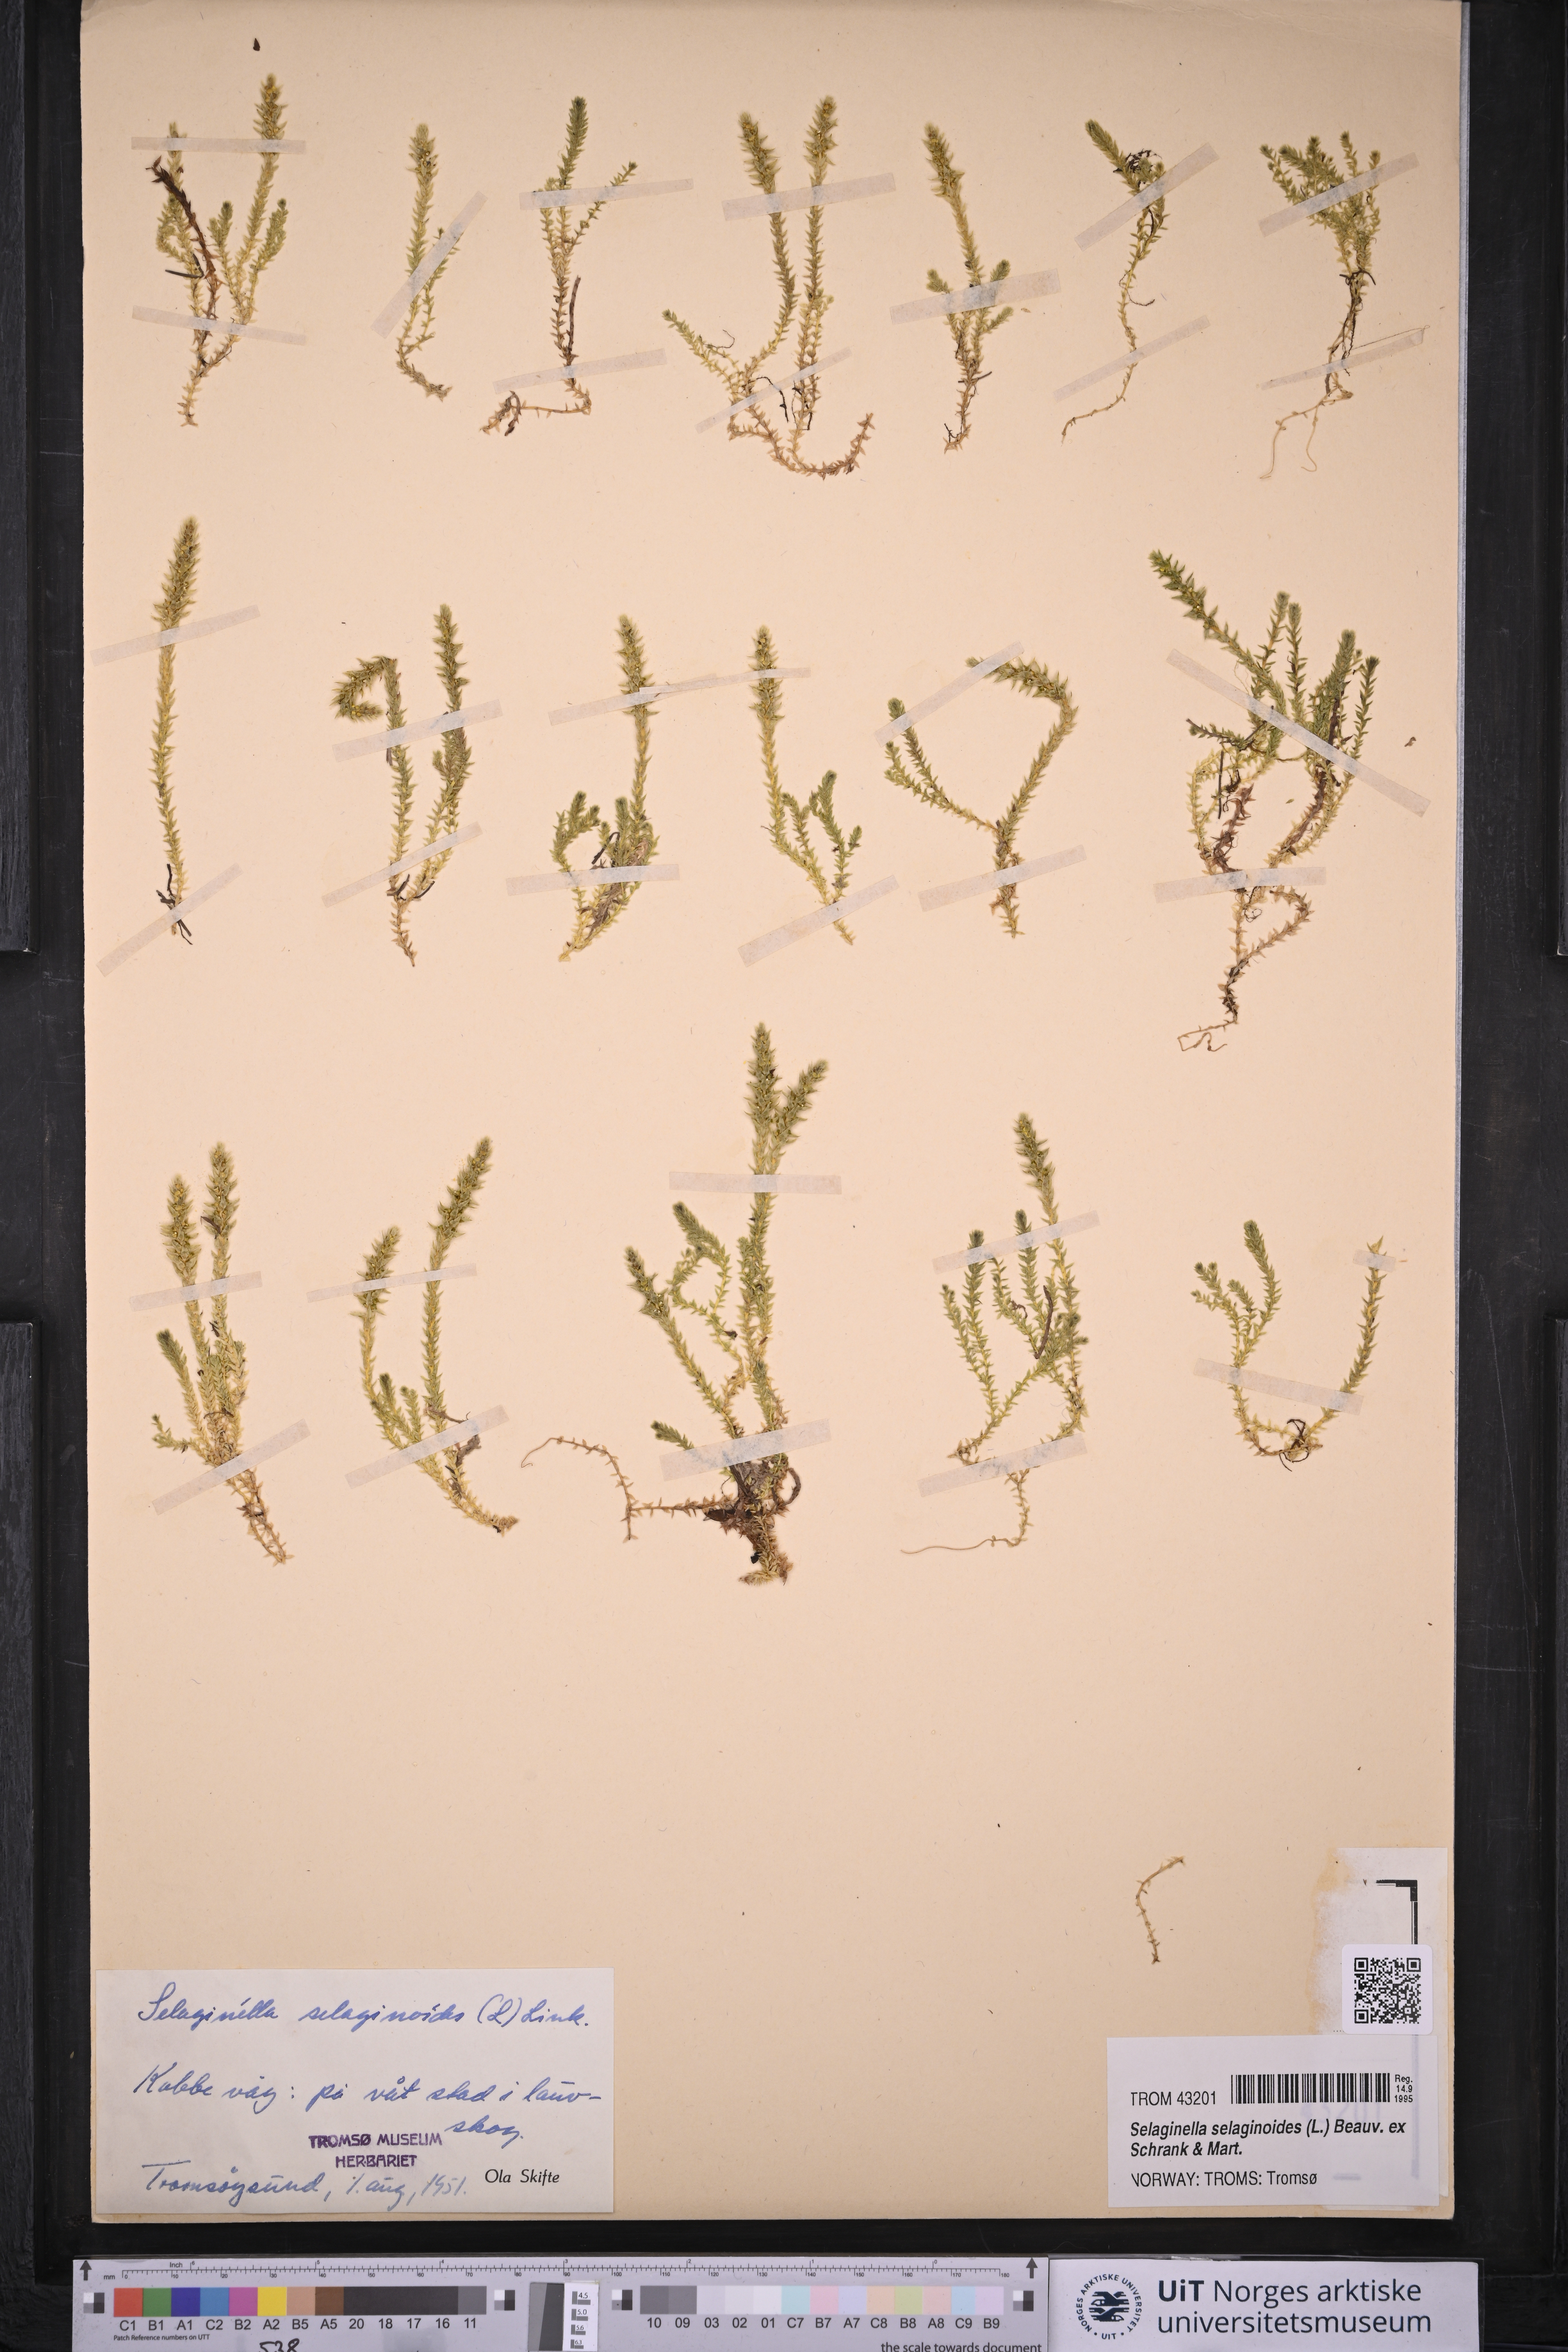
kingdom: Plantae
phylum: Tracheophyta
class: Lycopodiopsida
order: Selaginellales
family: Selaginellaceae
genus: Selaginella
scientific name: Selaginella selaginoides
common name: Prickly mountain-moss
